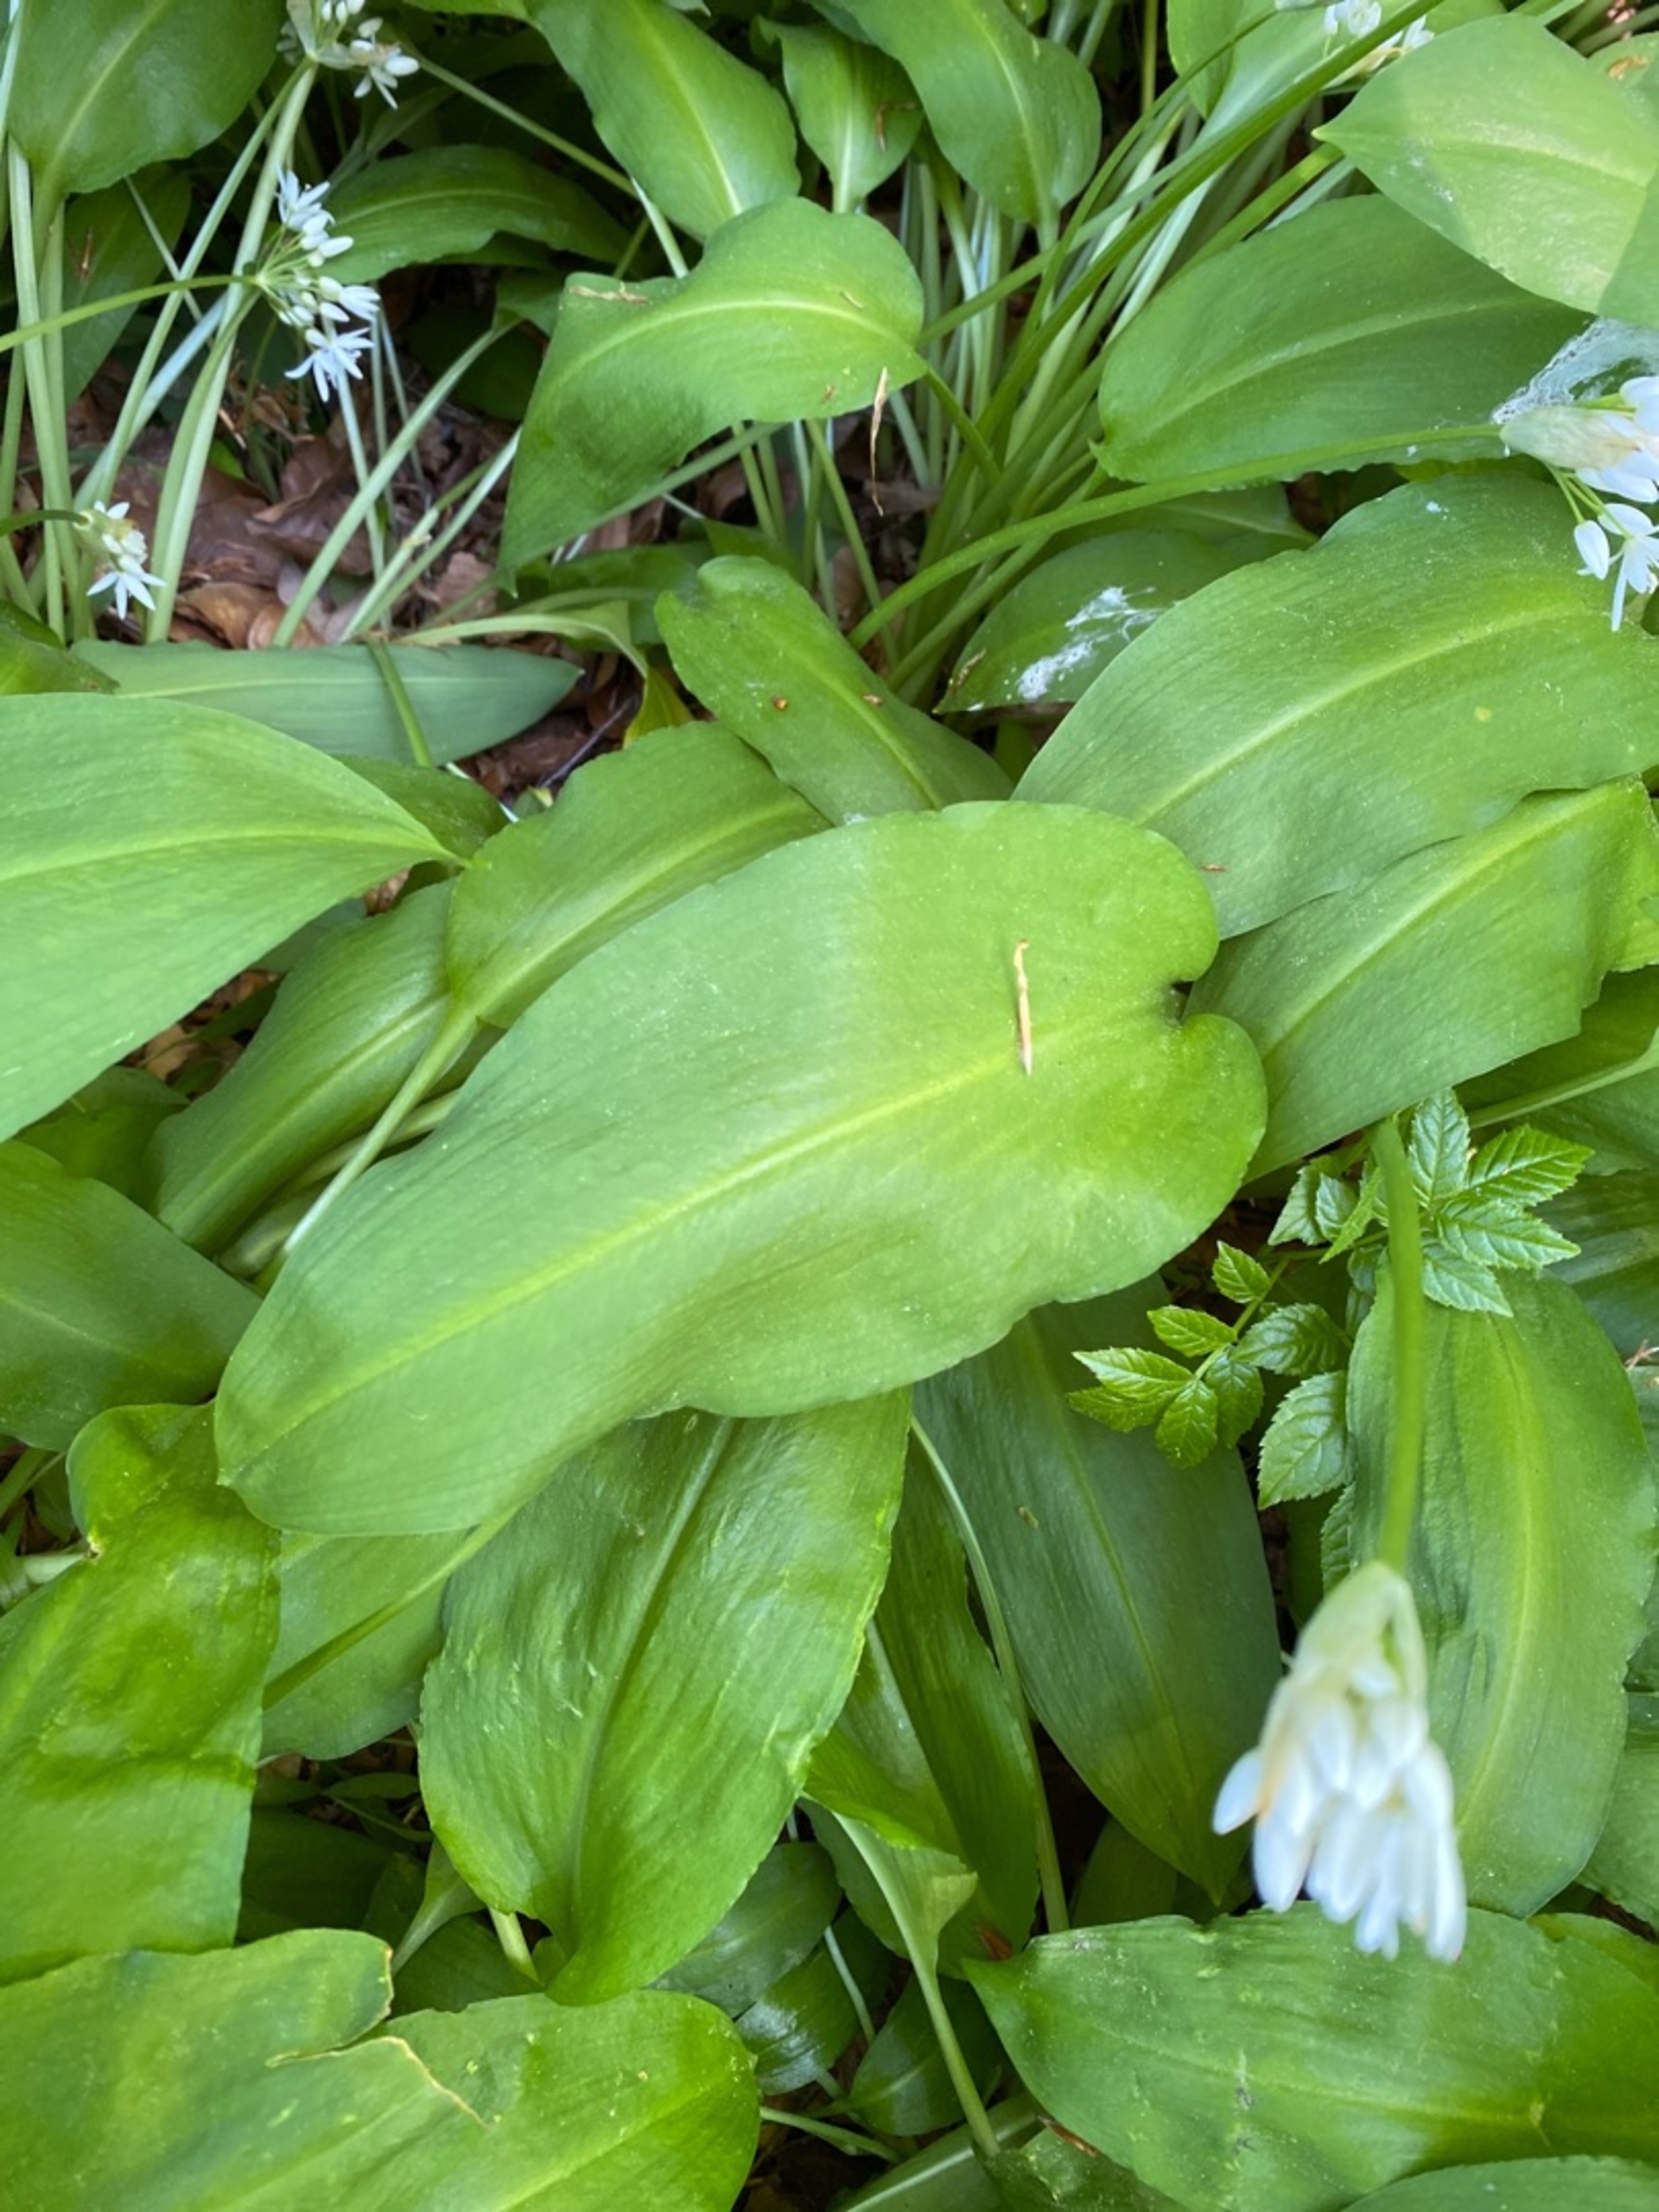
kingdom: Plantae
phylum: Tracheophyta
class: Liliopsida
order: Asparagales
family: Amaryllidaceae
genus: Allium
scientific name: Allium ursinum
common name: Rams-løg
